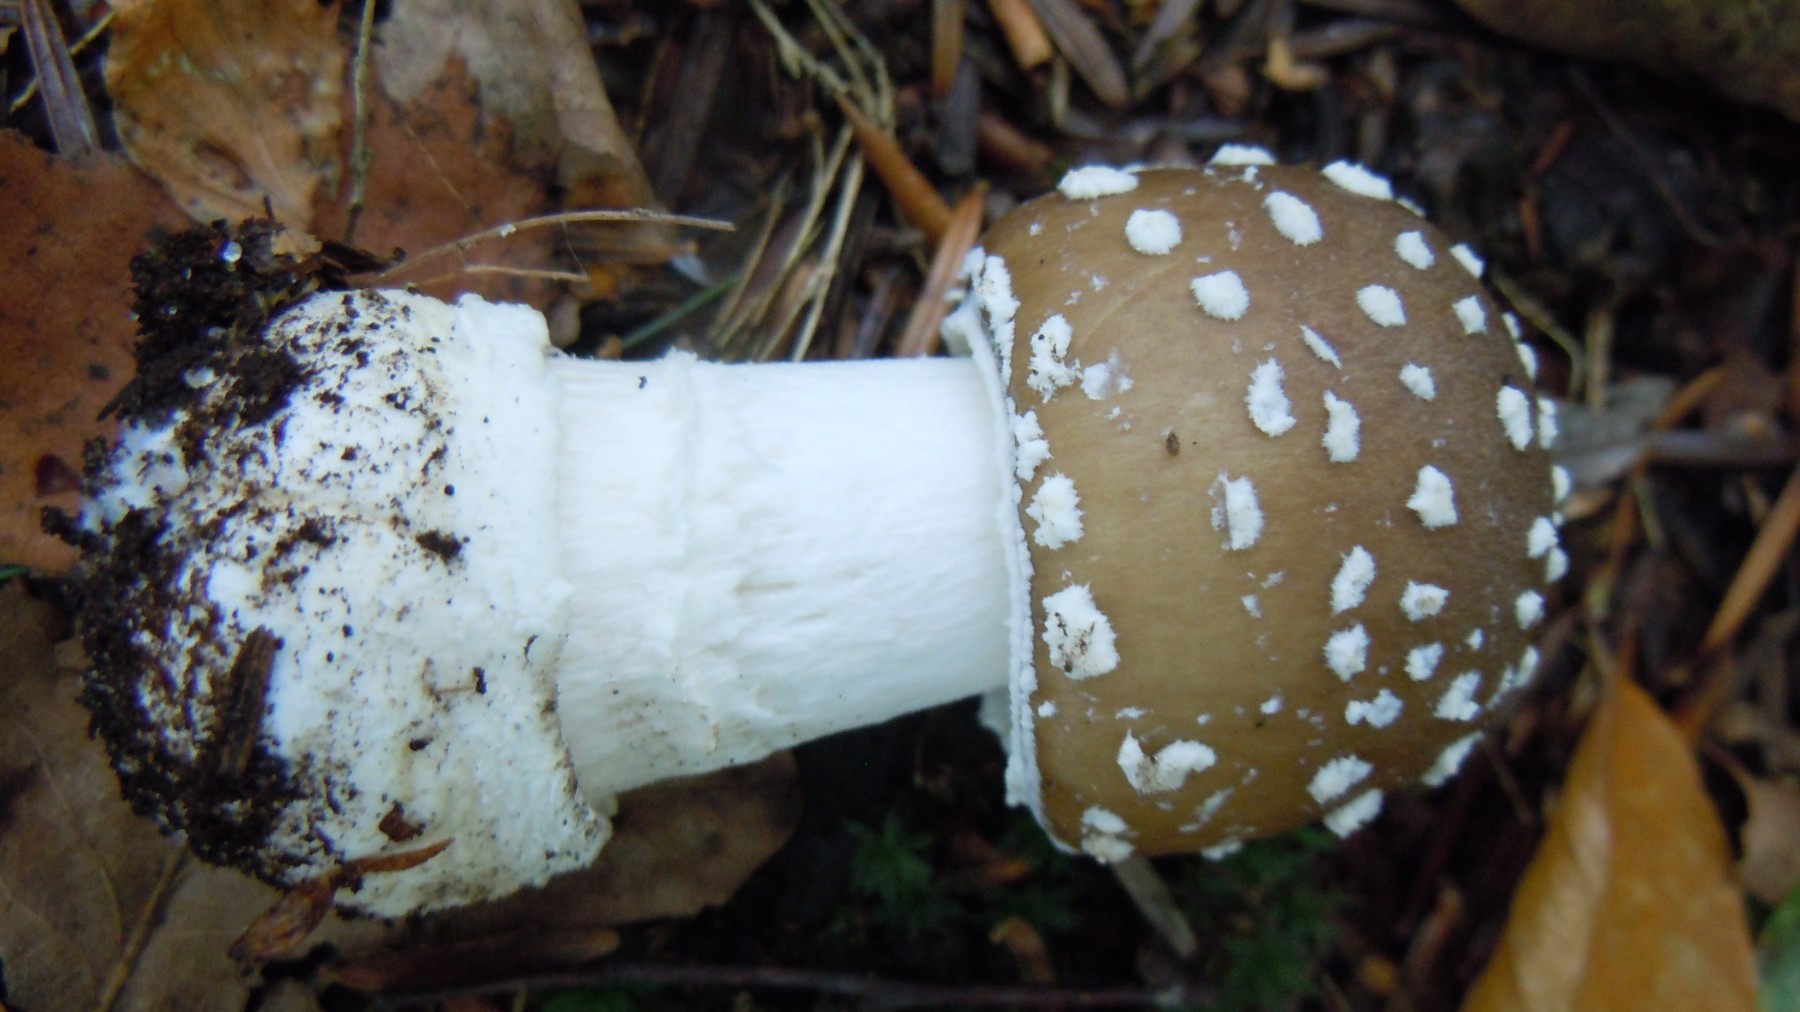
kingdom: Fungi
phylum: Basidiomycota
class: Agaricomycetes
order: Agaricales
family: Amanitaceae
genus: Amanita
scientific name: Amanita pantherina
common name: panter-fluesvamp
